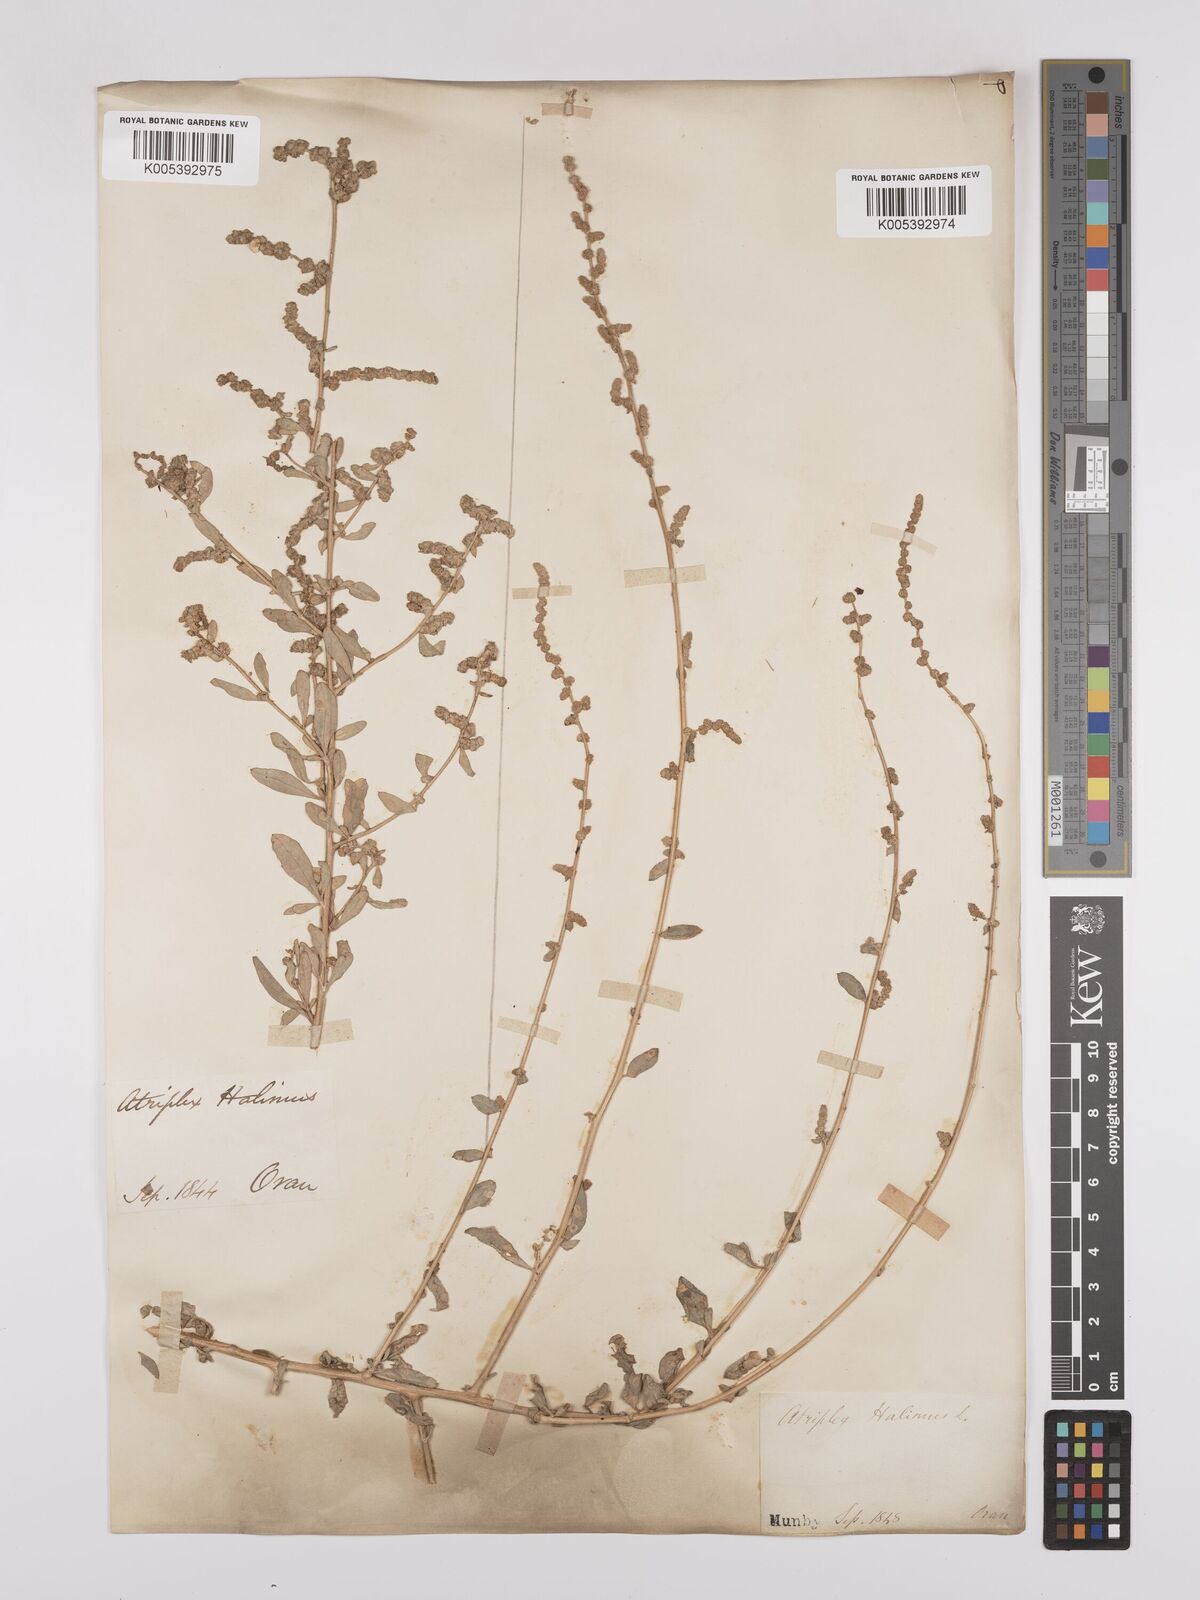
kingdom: Plantae
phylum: Tracheophyta
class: Magnoliopsida
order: Caryophyllales
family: Amaranthaceae
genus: Atriplex
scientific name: Atriplex
